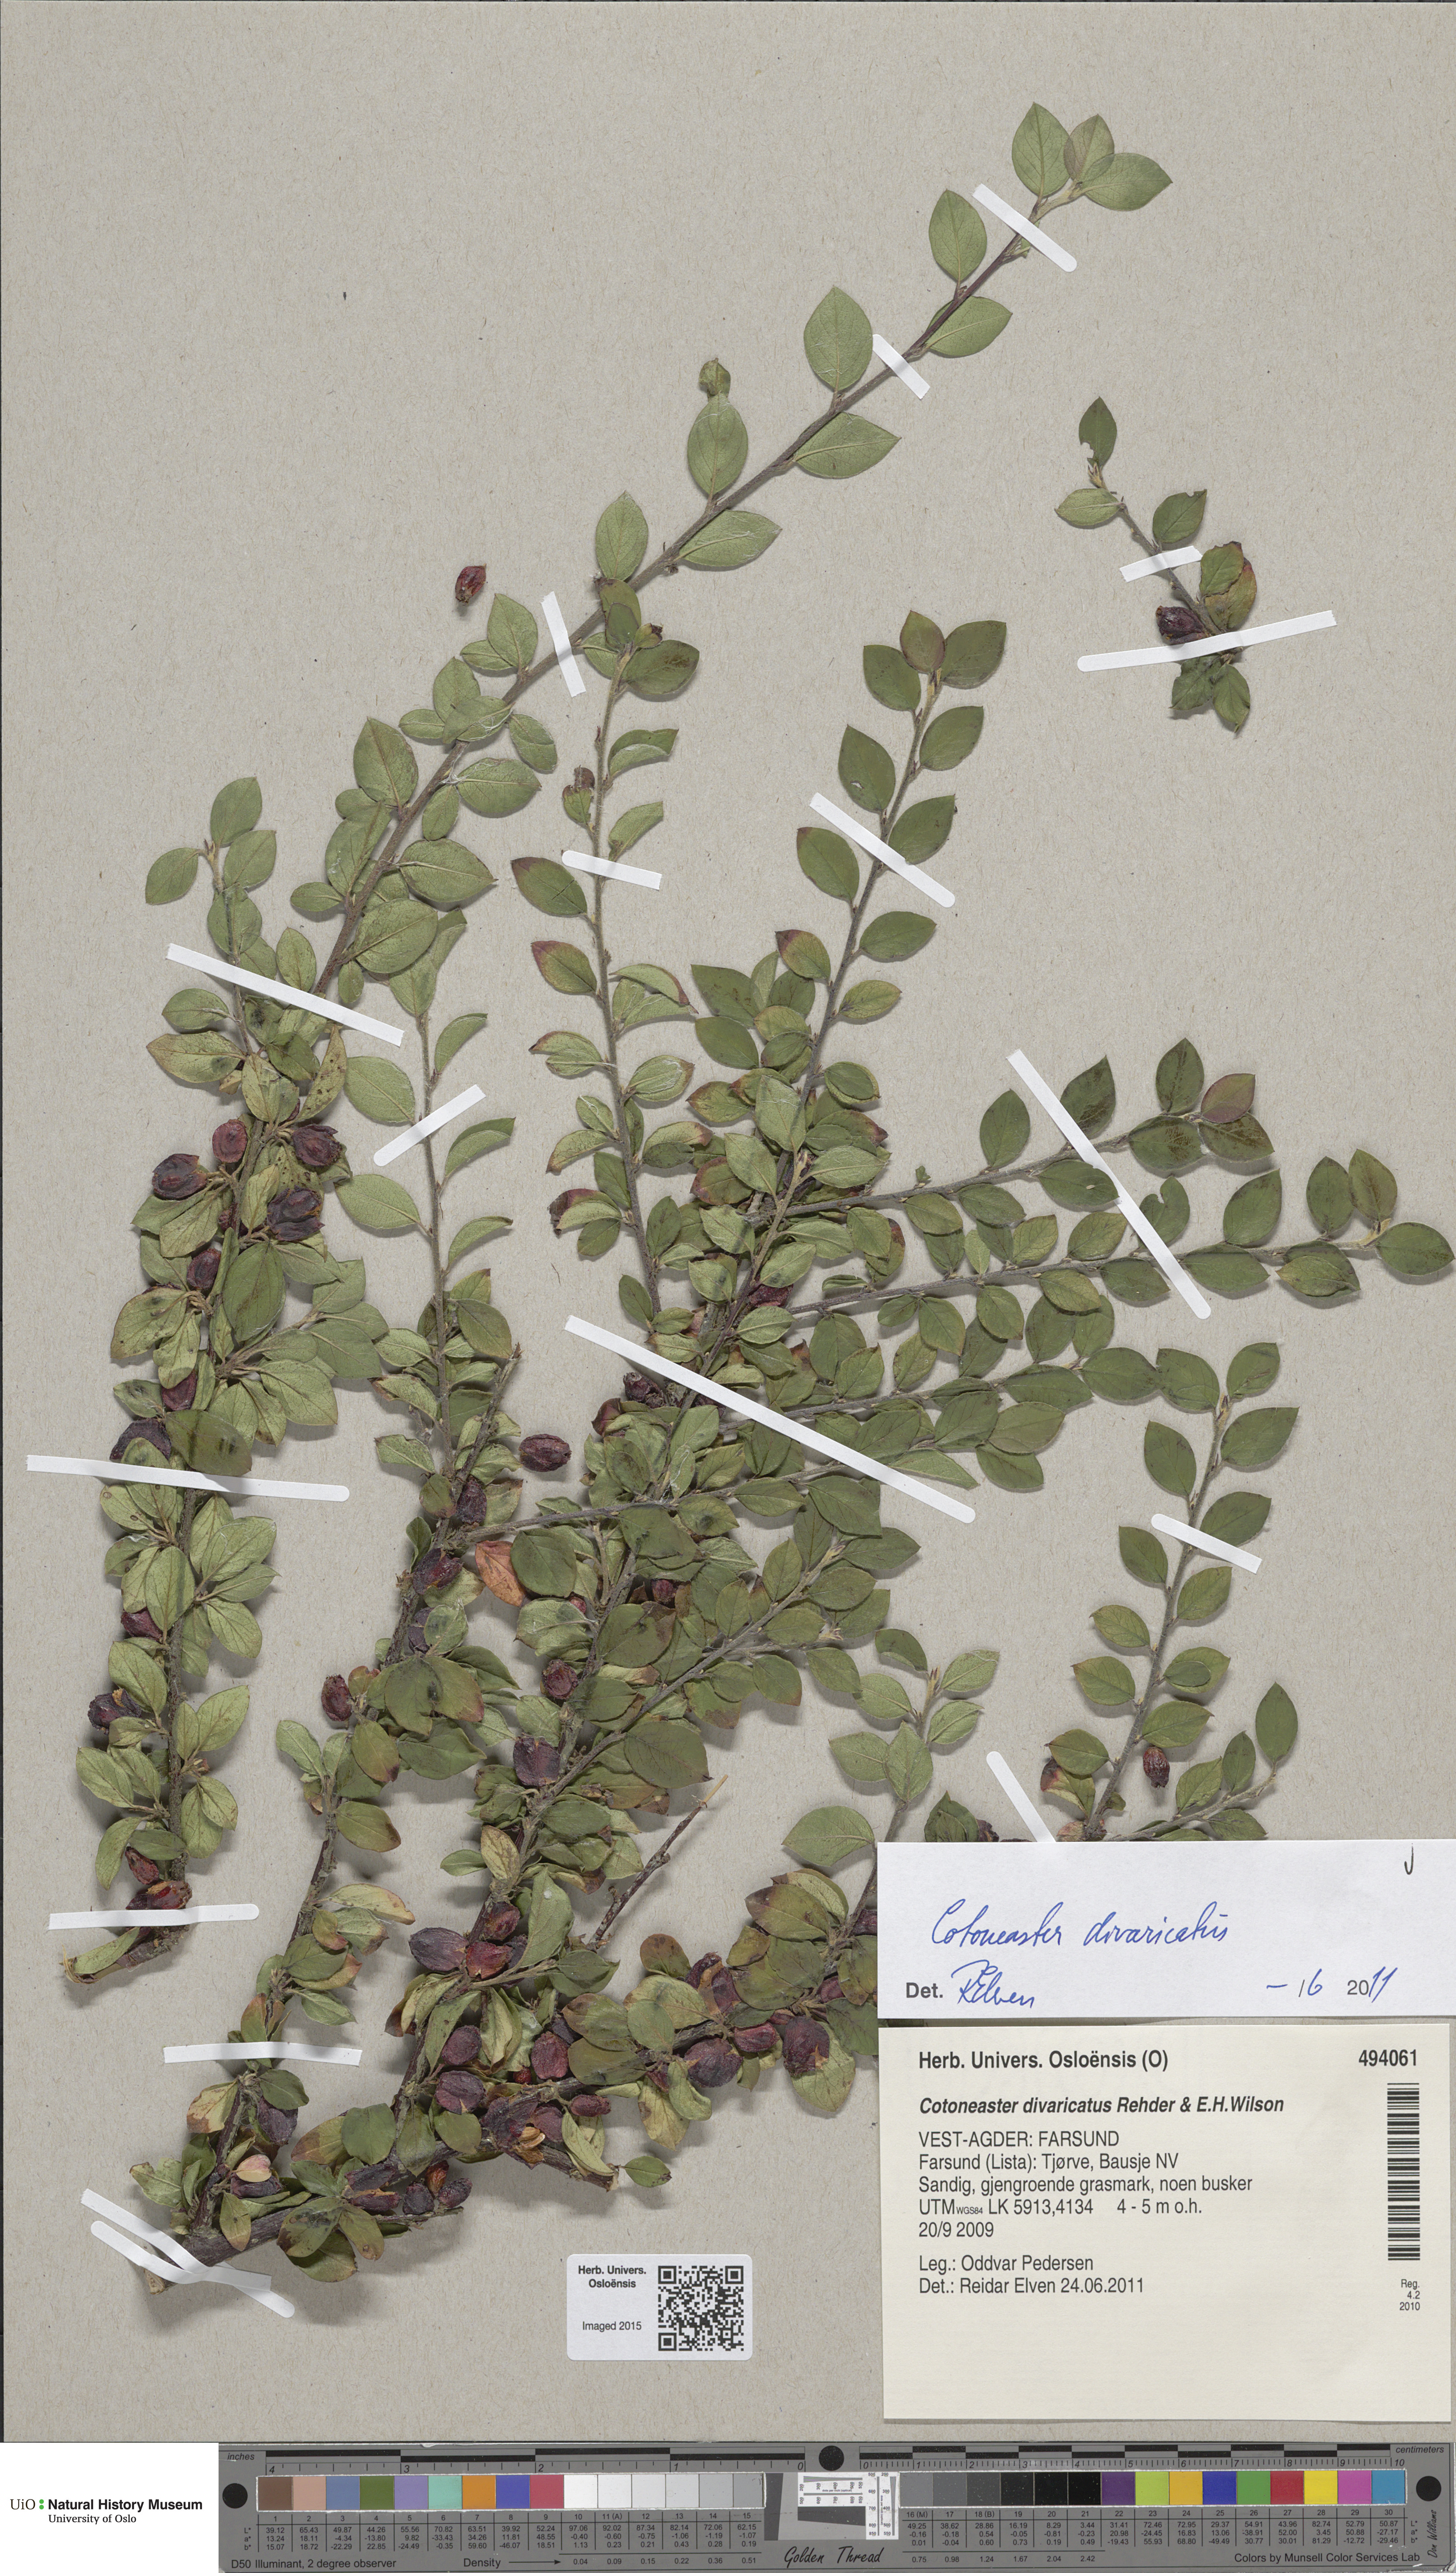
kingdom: Plantae
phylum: Tracheophyta
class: Magnoliopsida
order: Rosales
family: Rosaceae
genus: Cotoneaster
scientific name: Cotoneaster divaricatus
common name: Spreading cotoneaster
